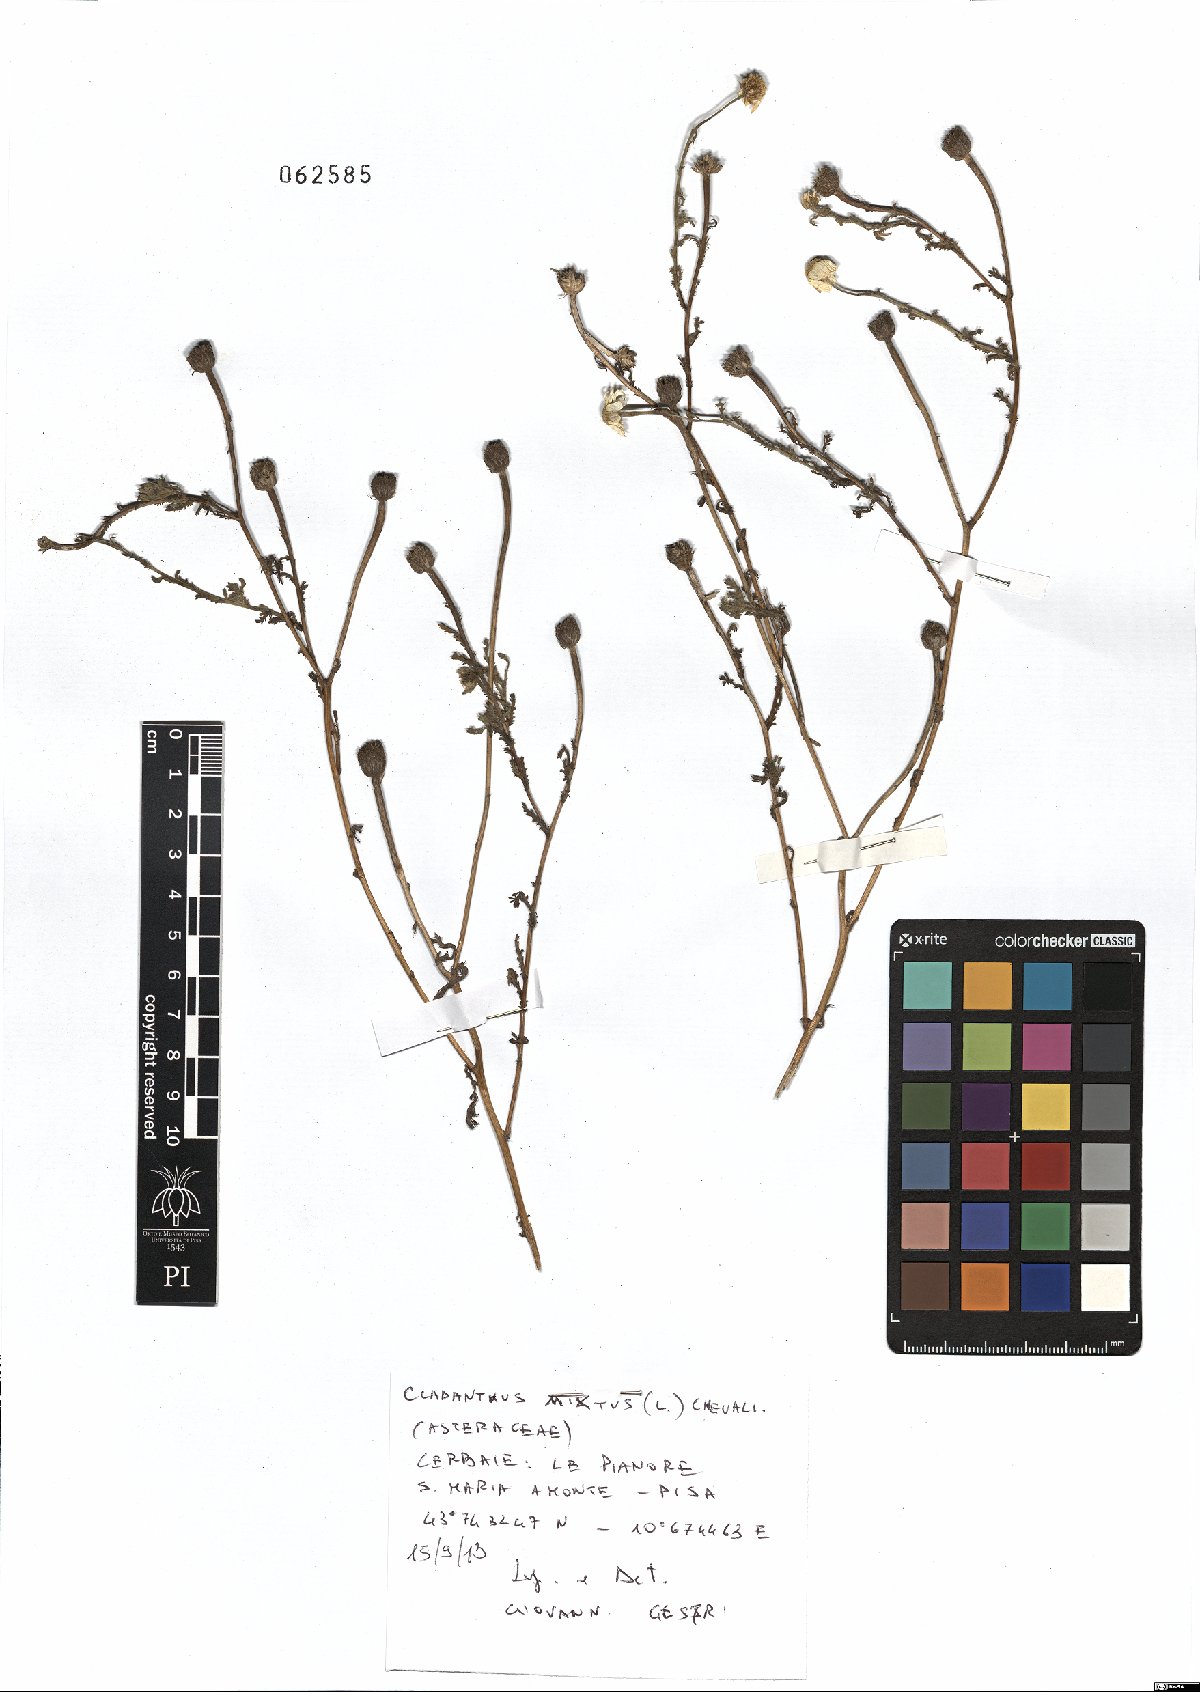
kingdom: Plantae
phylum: Tracheophyta
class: Magnoliopsida
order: Asterales
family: Asteraceae
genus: Cladanthus
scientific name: Cladanthus mixtus
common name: Weedy dogfennel
